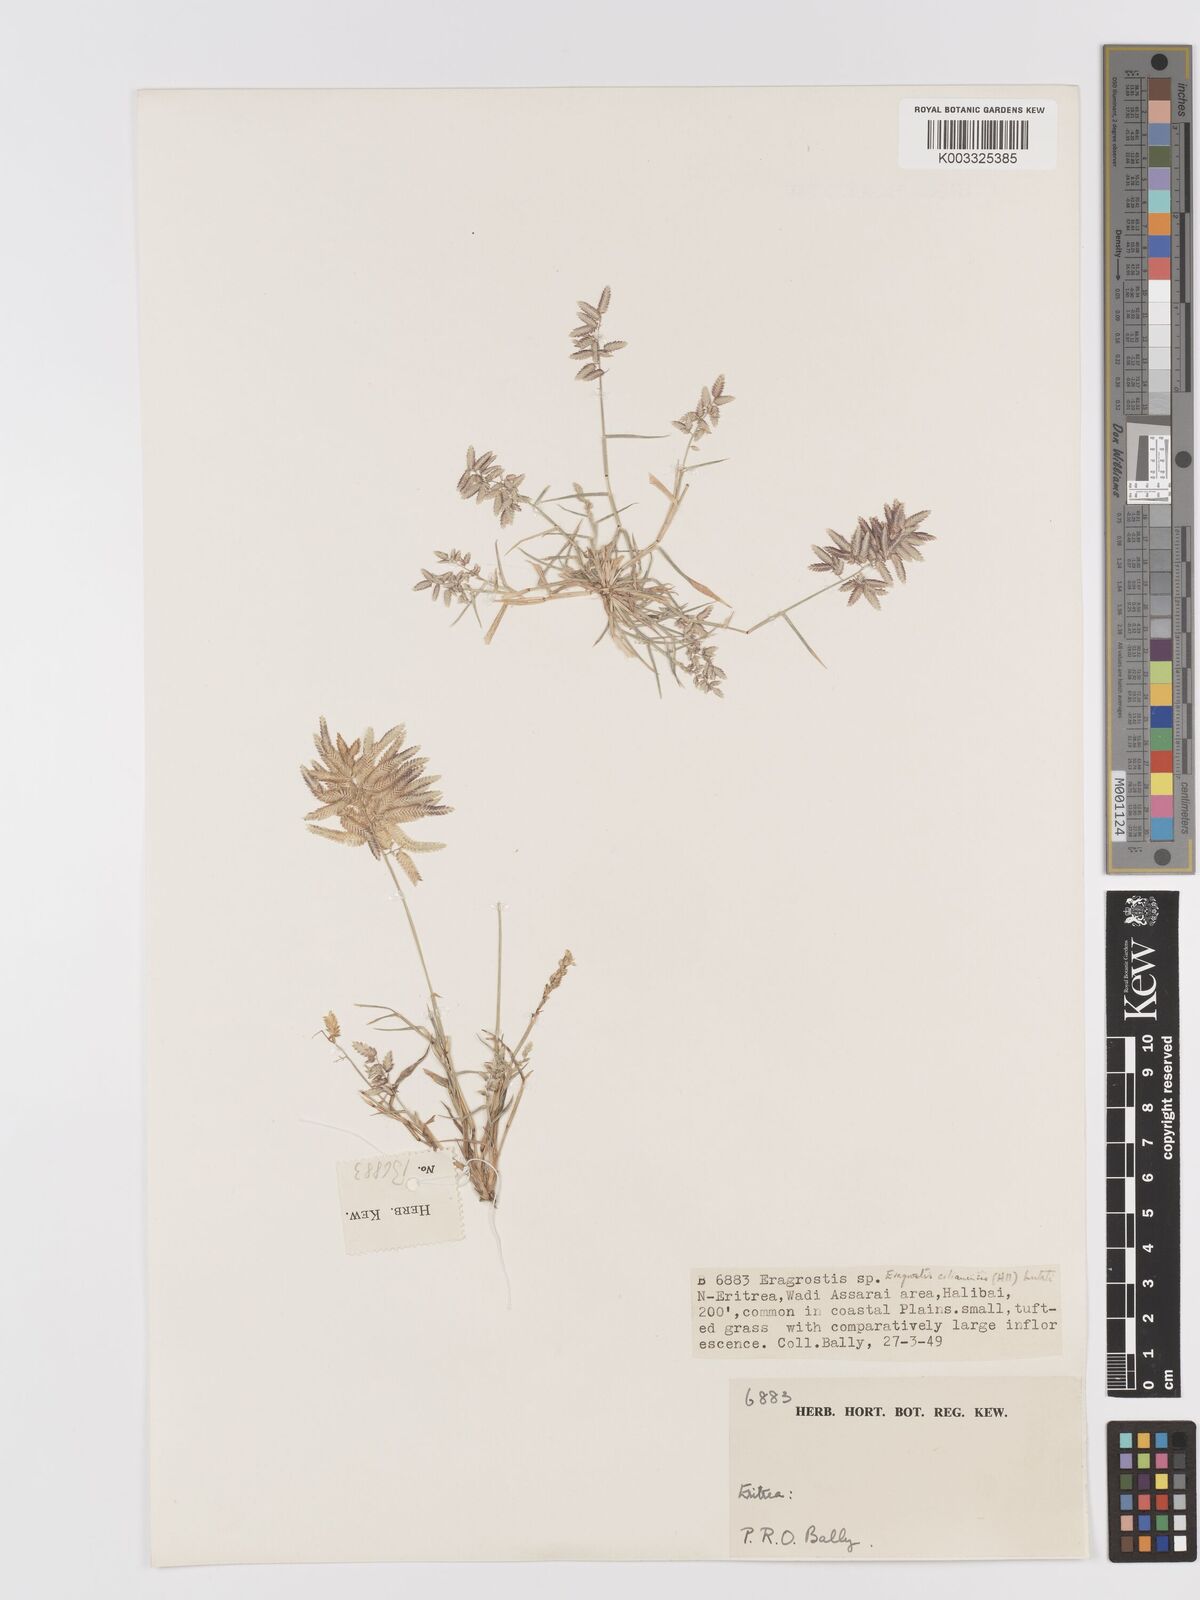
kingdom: Plantae
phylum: Tracheophyta
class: Liliopsida
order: Poales
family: Poaceae
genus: Eragrostis
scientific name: Eragrostis cilianensis
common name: Stinkgrass
